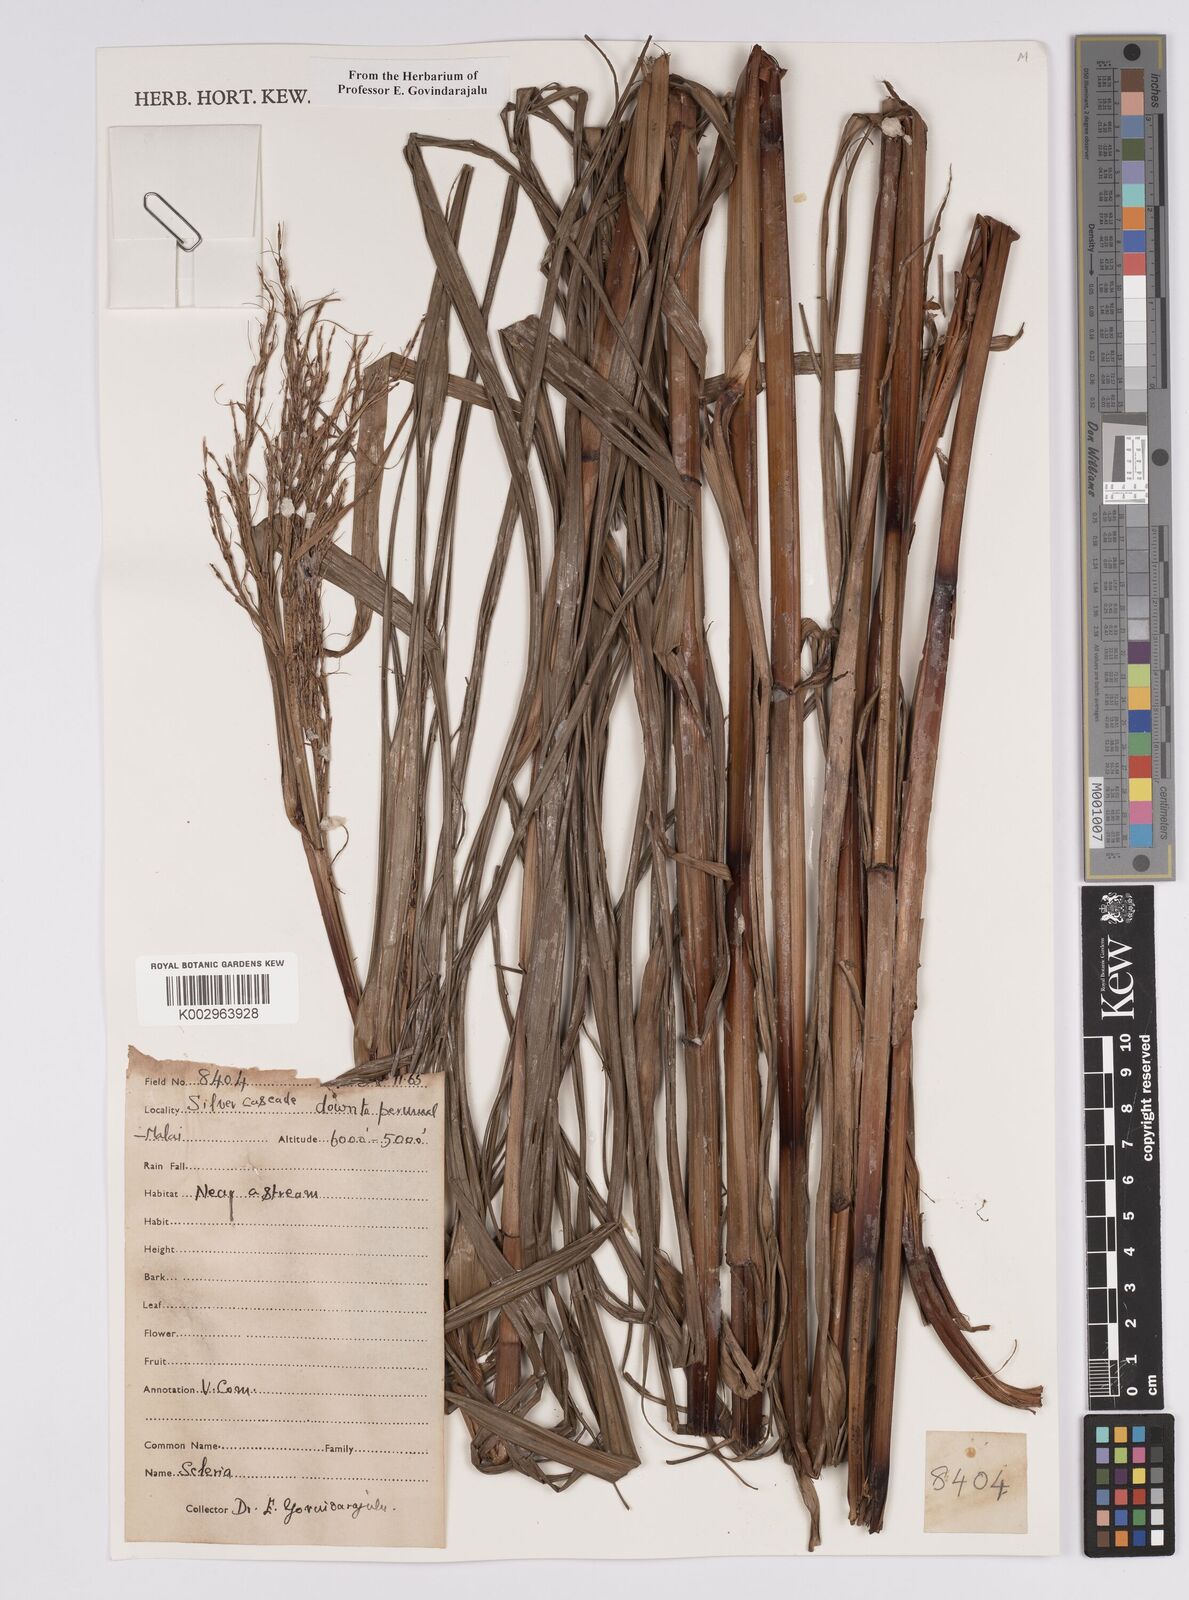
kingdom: Plantae
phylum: Tracheophyta
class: Liliopsida
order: Poales
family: Cyperaceae
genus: Scleria
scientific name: Scleria
